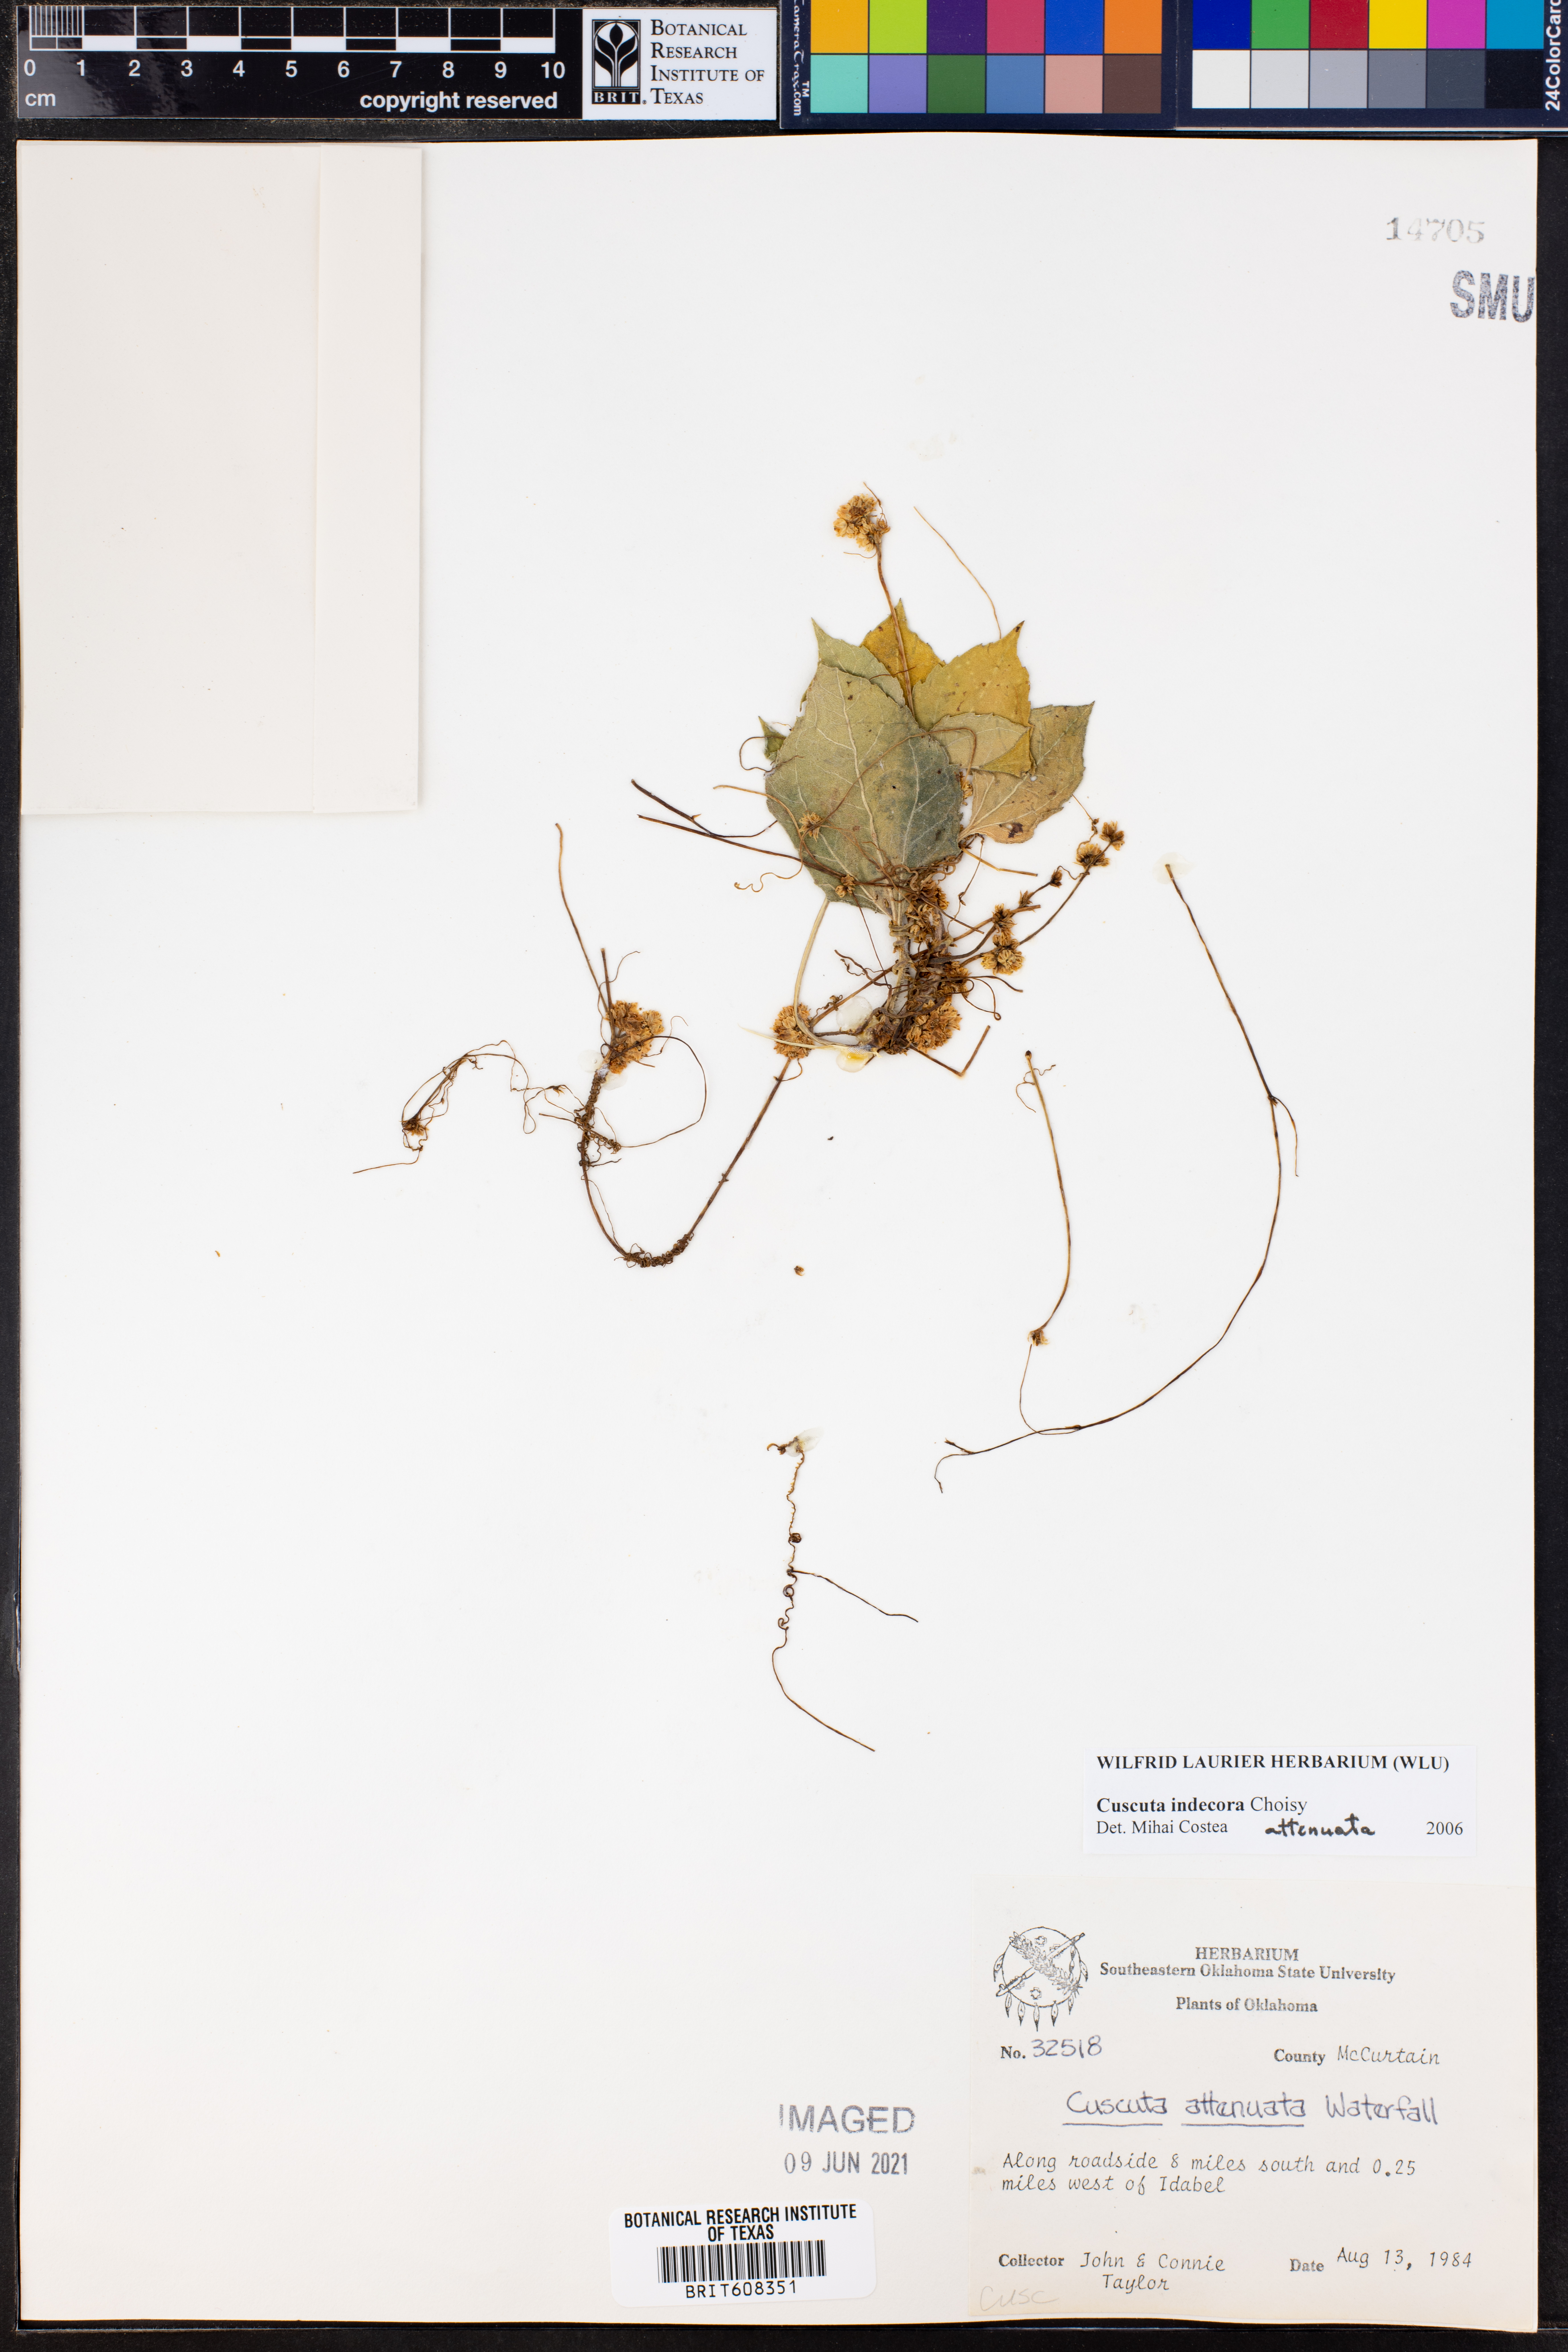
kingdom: Plantae
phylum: Tracheophyta
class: Magnoliopsida
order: Solanales
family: Convolvulaceae
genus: Cuscuta
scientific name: Cuscuta indecora
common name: Large-seed dodder
